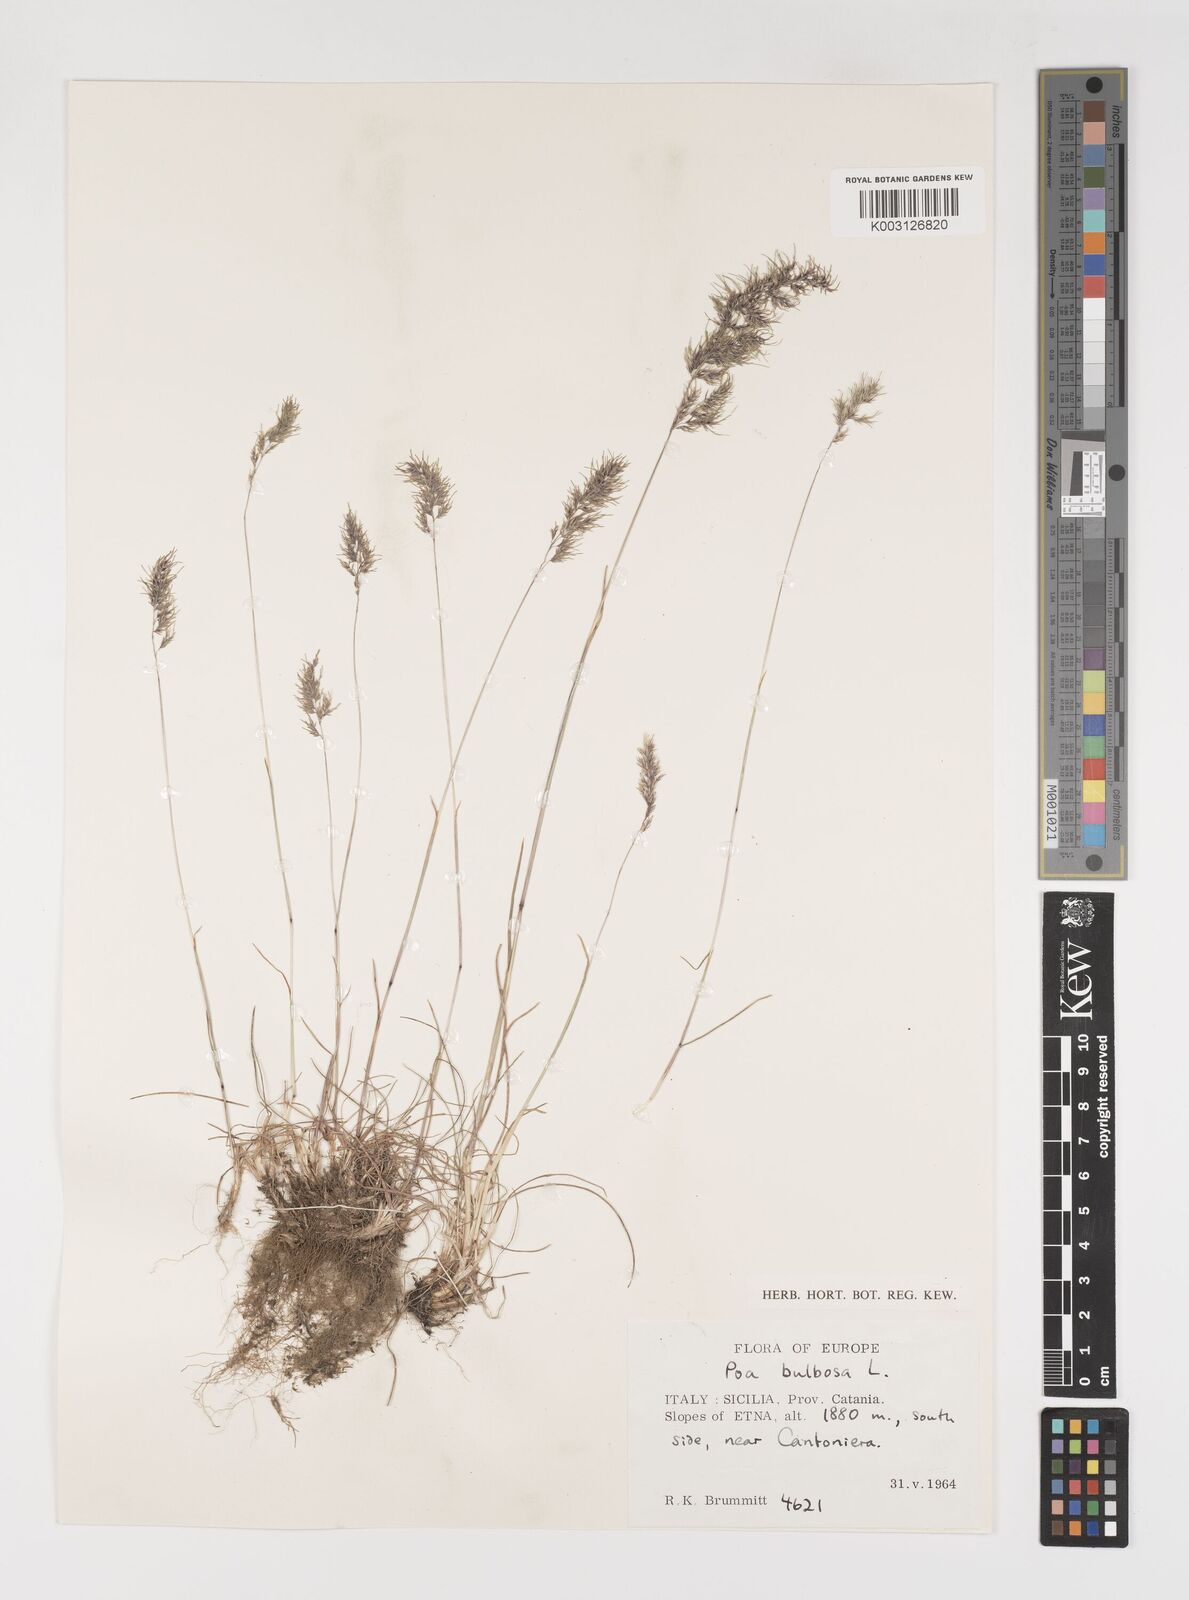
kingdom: Plantae
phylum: Tracheophyta
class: Liliopsida
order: Poales
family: Poaceae
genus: Poa
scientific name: Poa bulbosa
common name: Bulbous bluegrass
